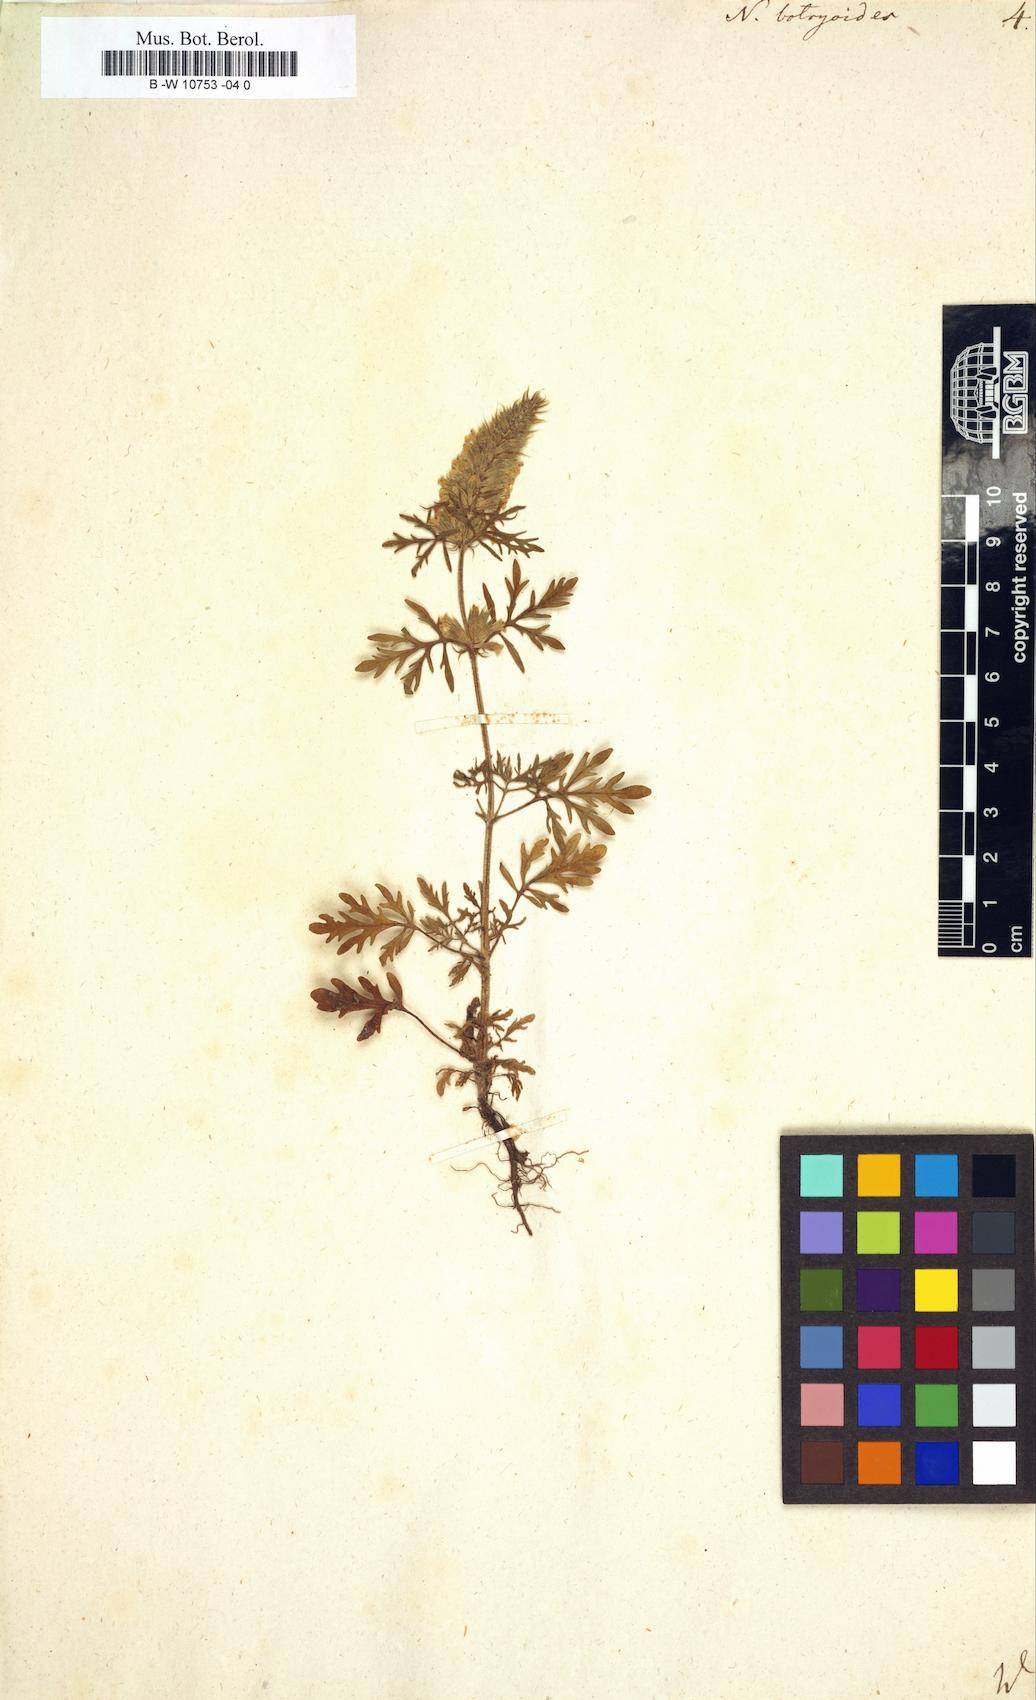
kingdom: Plantae
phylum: Tracheophyta
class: Magnoliopsida
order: Lamiales
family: Lamiaceae
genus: Nepeta
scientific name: Nepeta annua
